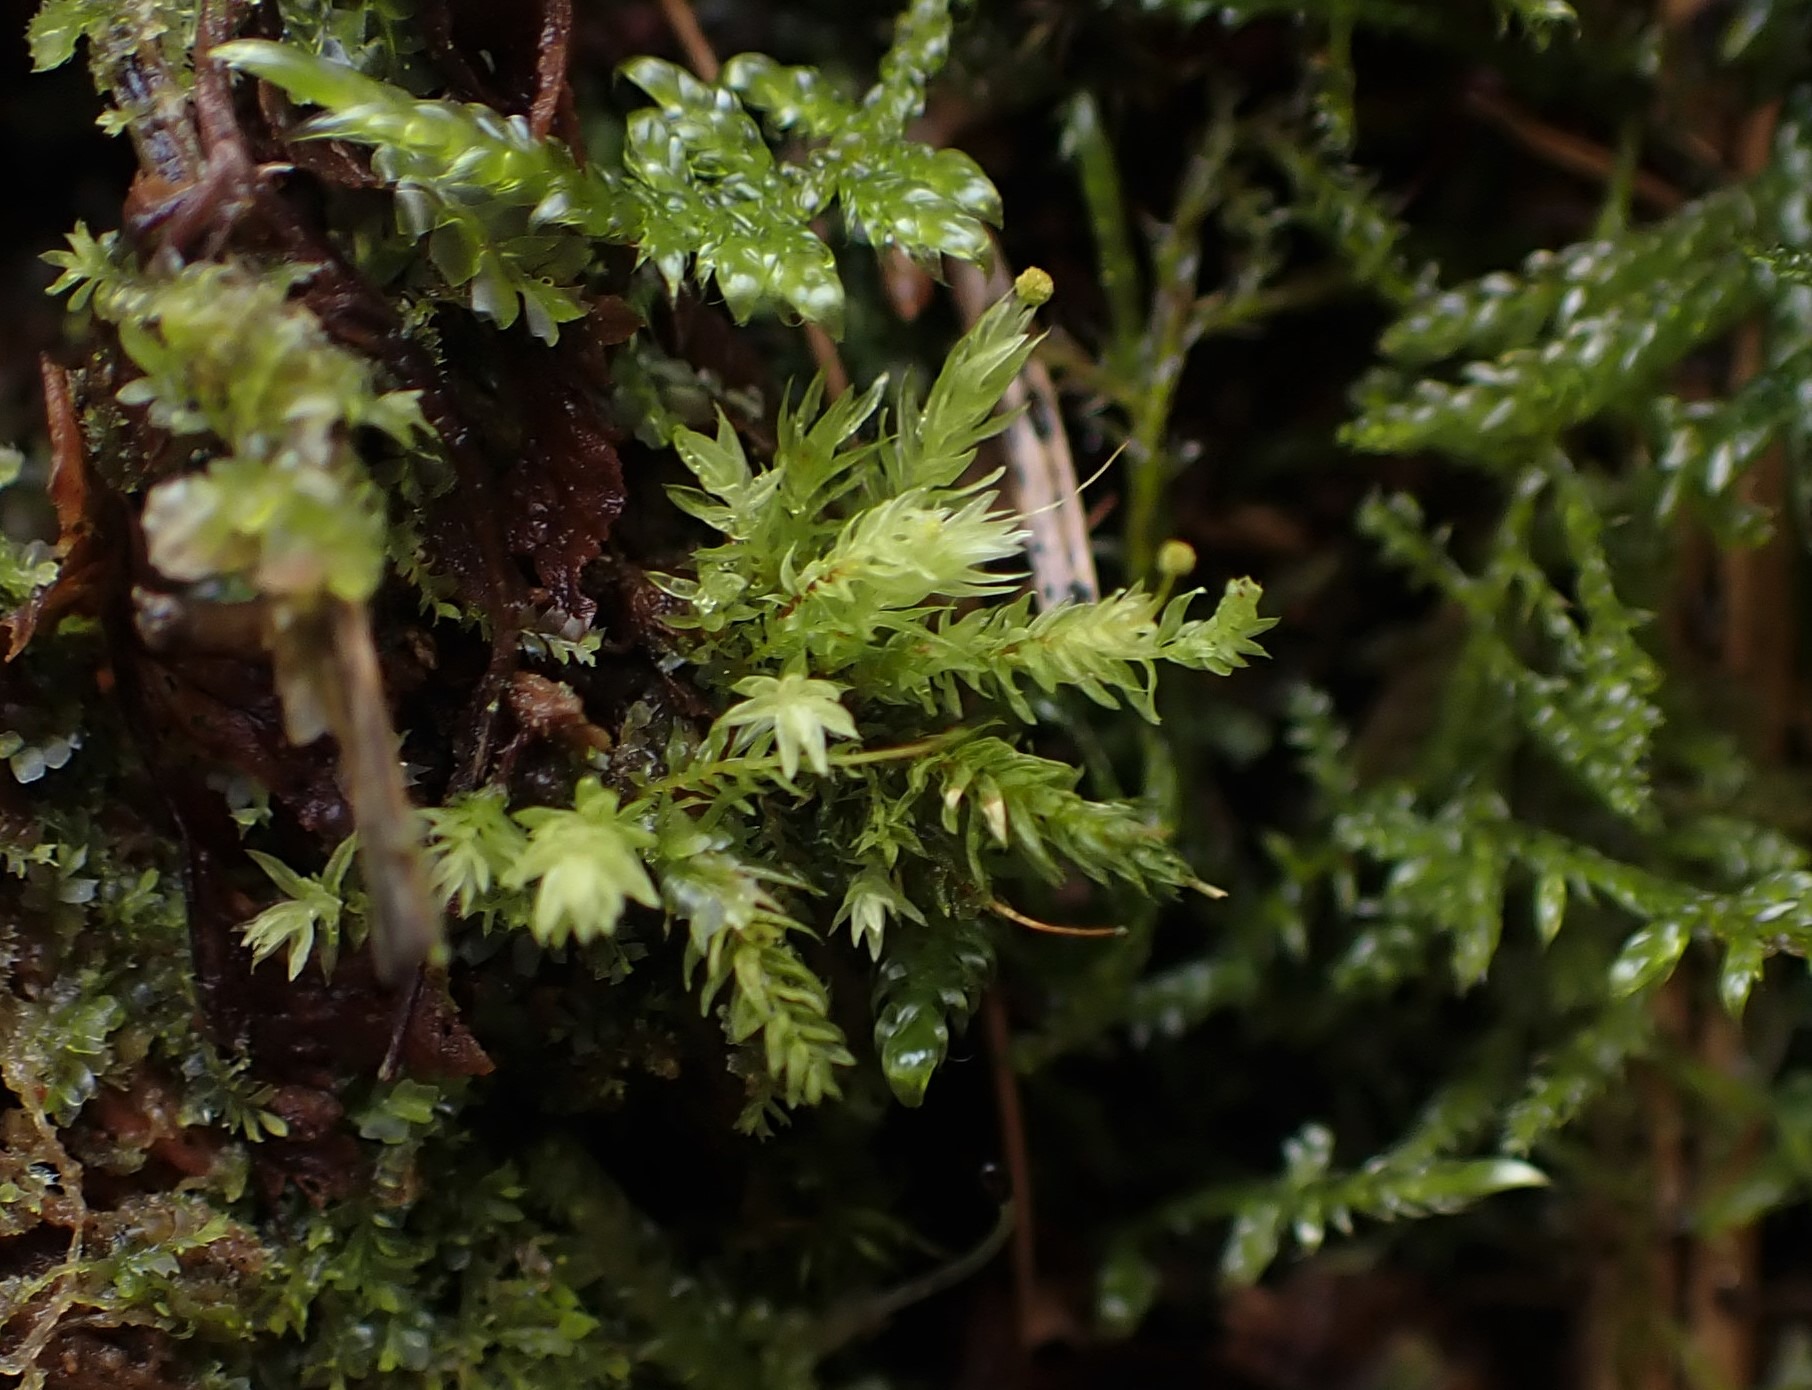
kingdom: Plantae
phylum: Bryophyta
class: Bryopsida
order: Aulacomniales
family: Aulacomniaceae
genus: Aulacomnium
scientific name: Aulacomnium androgynum
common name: Kugle-filtmos
